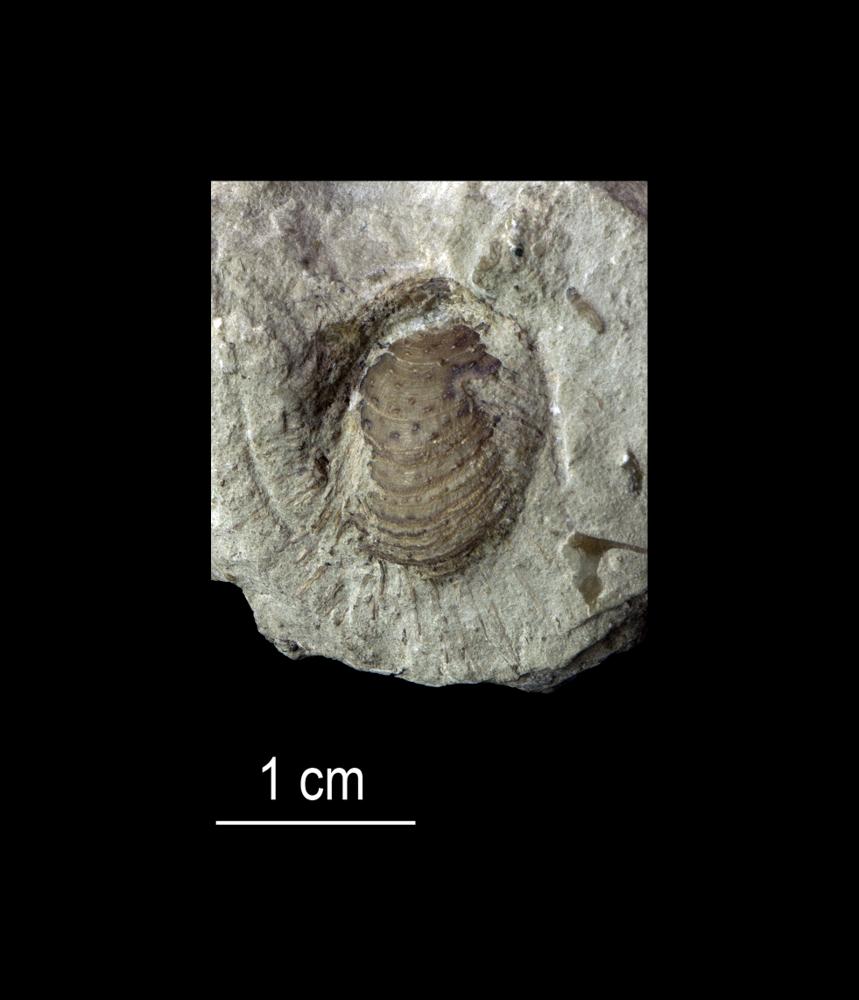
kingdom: Animalia
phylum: Brachiopoda
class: Lingulata
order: Siphonotretida
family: Siphonotretidae
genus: Siphonotreta
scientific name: Siphonotreta
